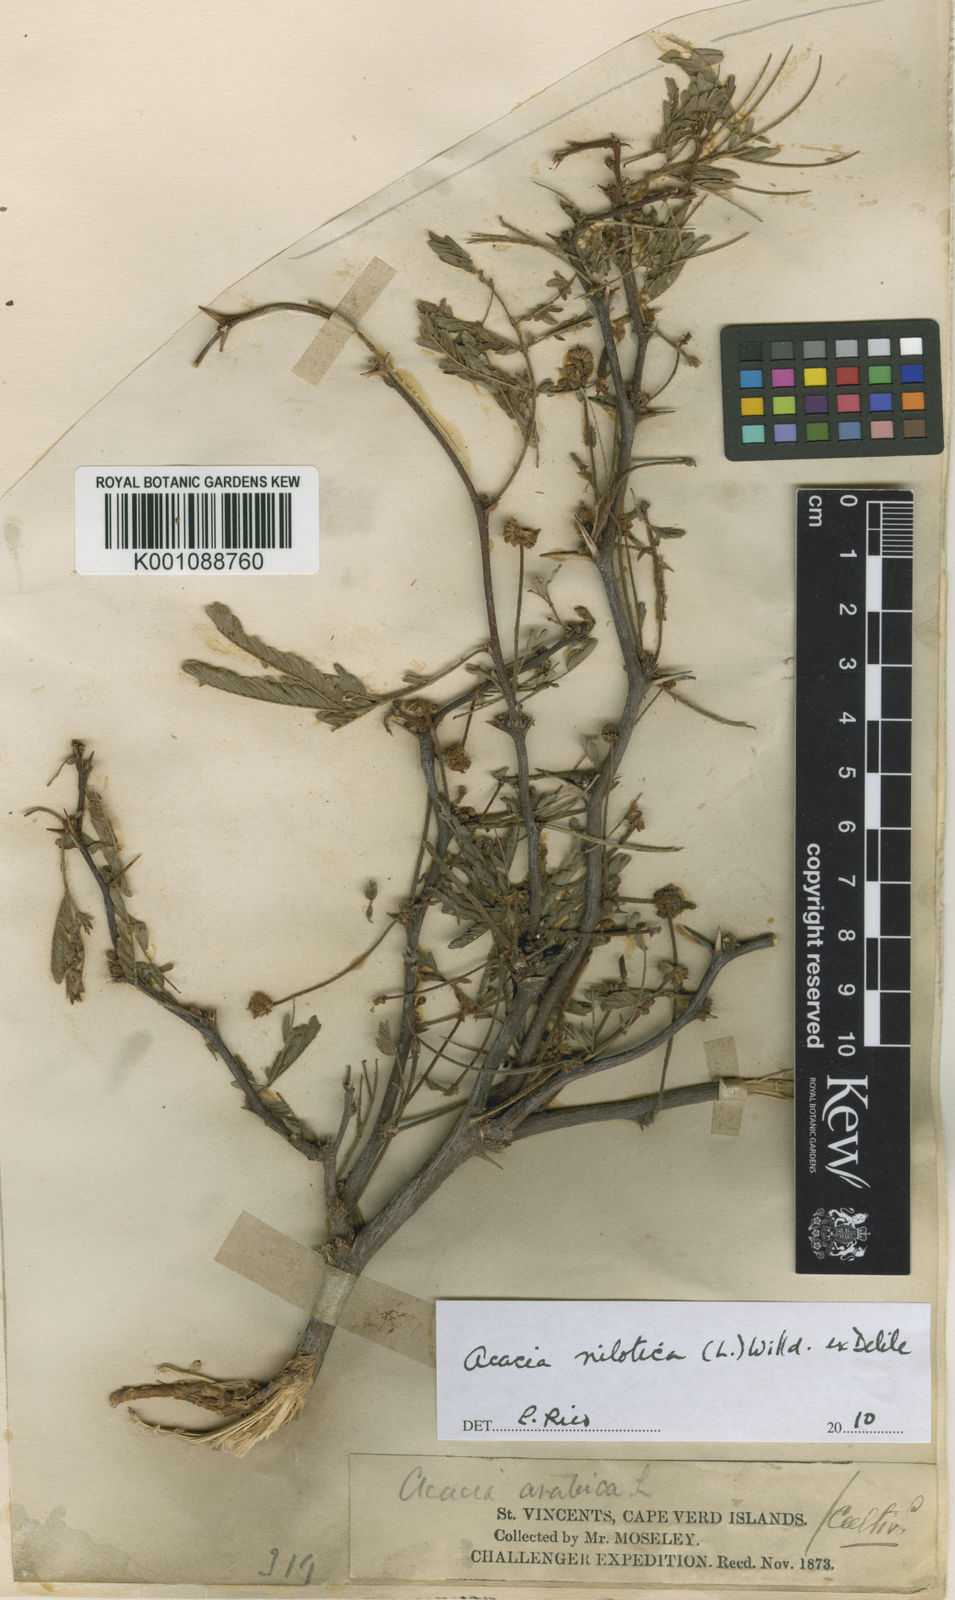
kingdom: Plantae
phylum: Tracheophyta
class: Magnoliopsida
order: Fabales
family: Fabaceae
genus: Vachellia
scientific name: Vachellia nilotica
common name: Arabic gumtree
